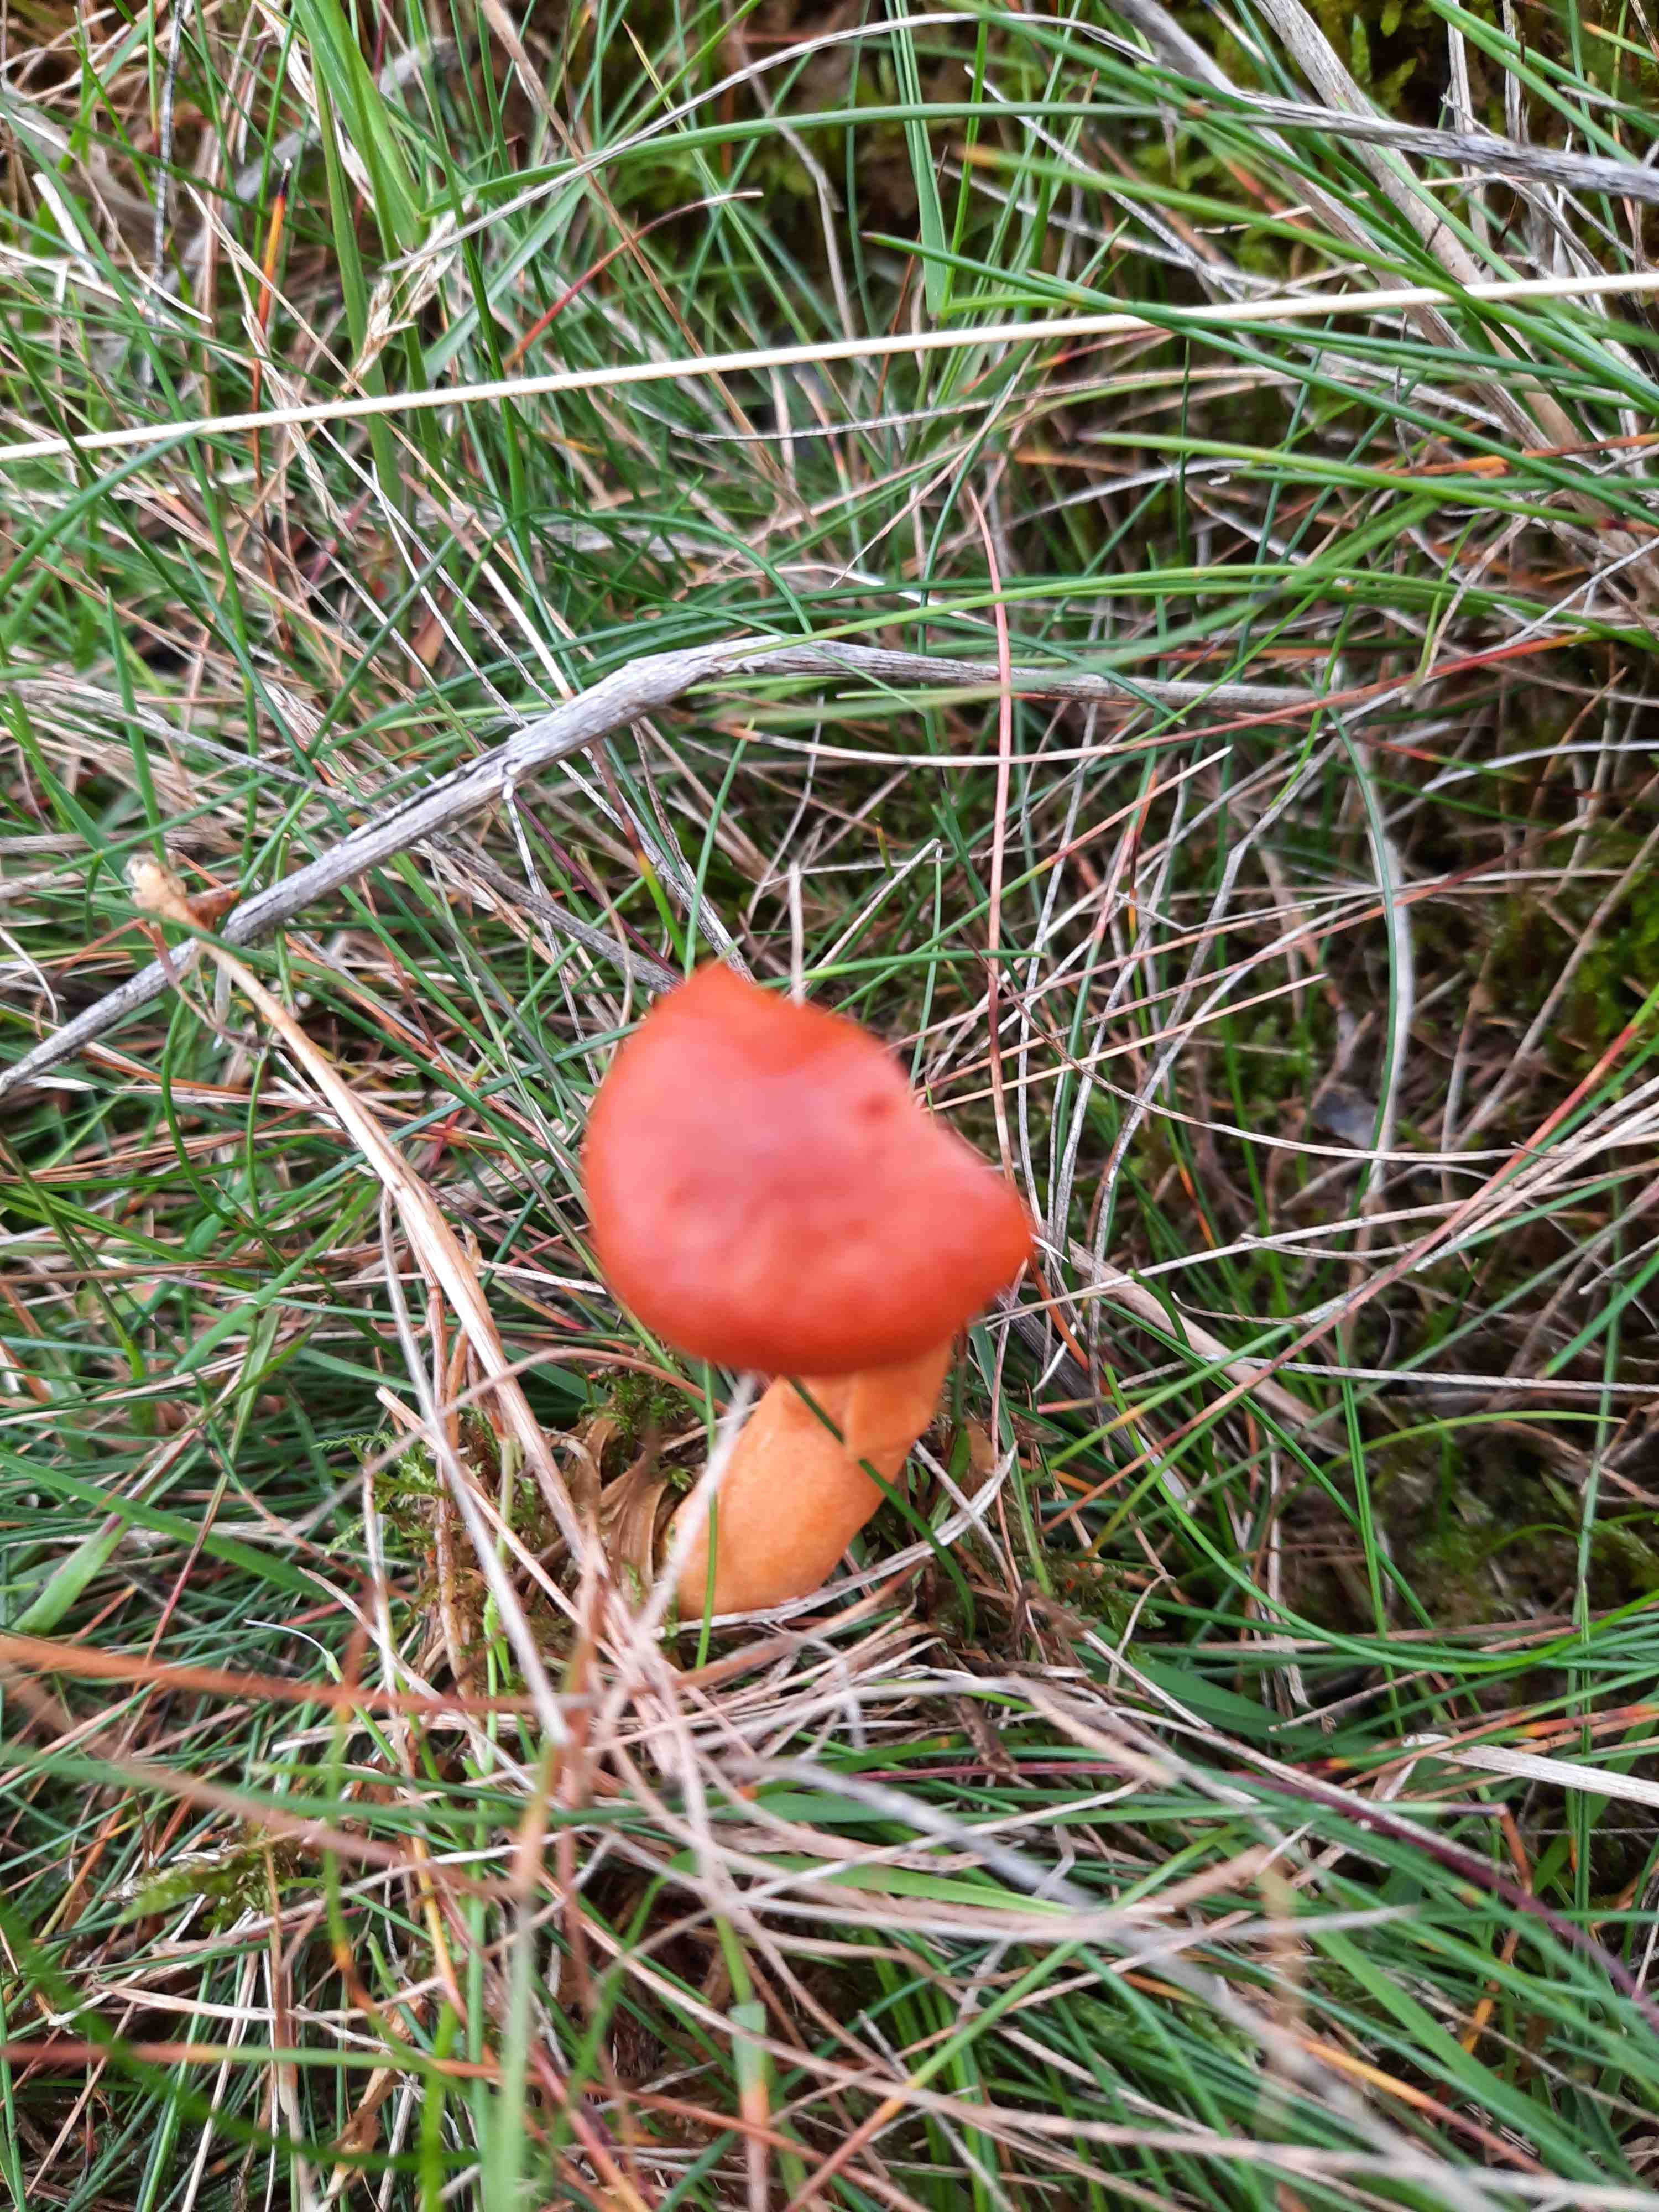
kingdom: Fungi
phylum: Basidiomycota
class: Agaricomycetes
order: Russulales
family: Russulaceae
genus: Lactarius
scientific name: Lactarius aurantiacus
